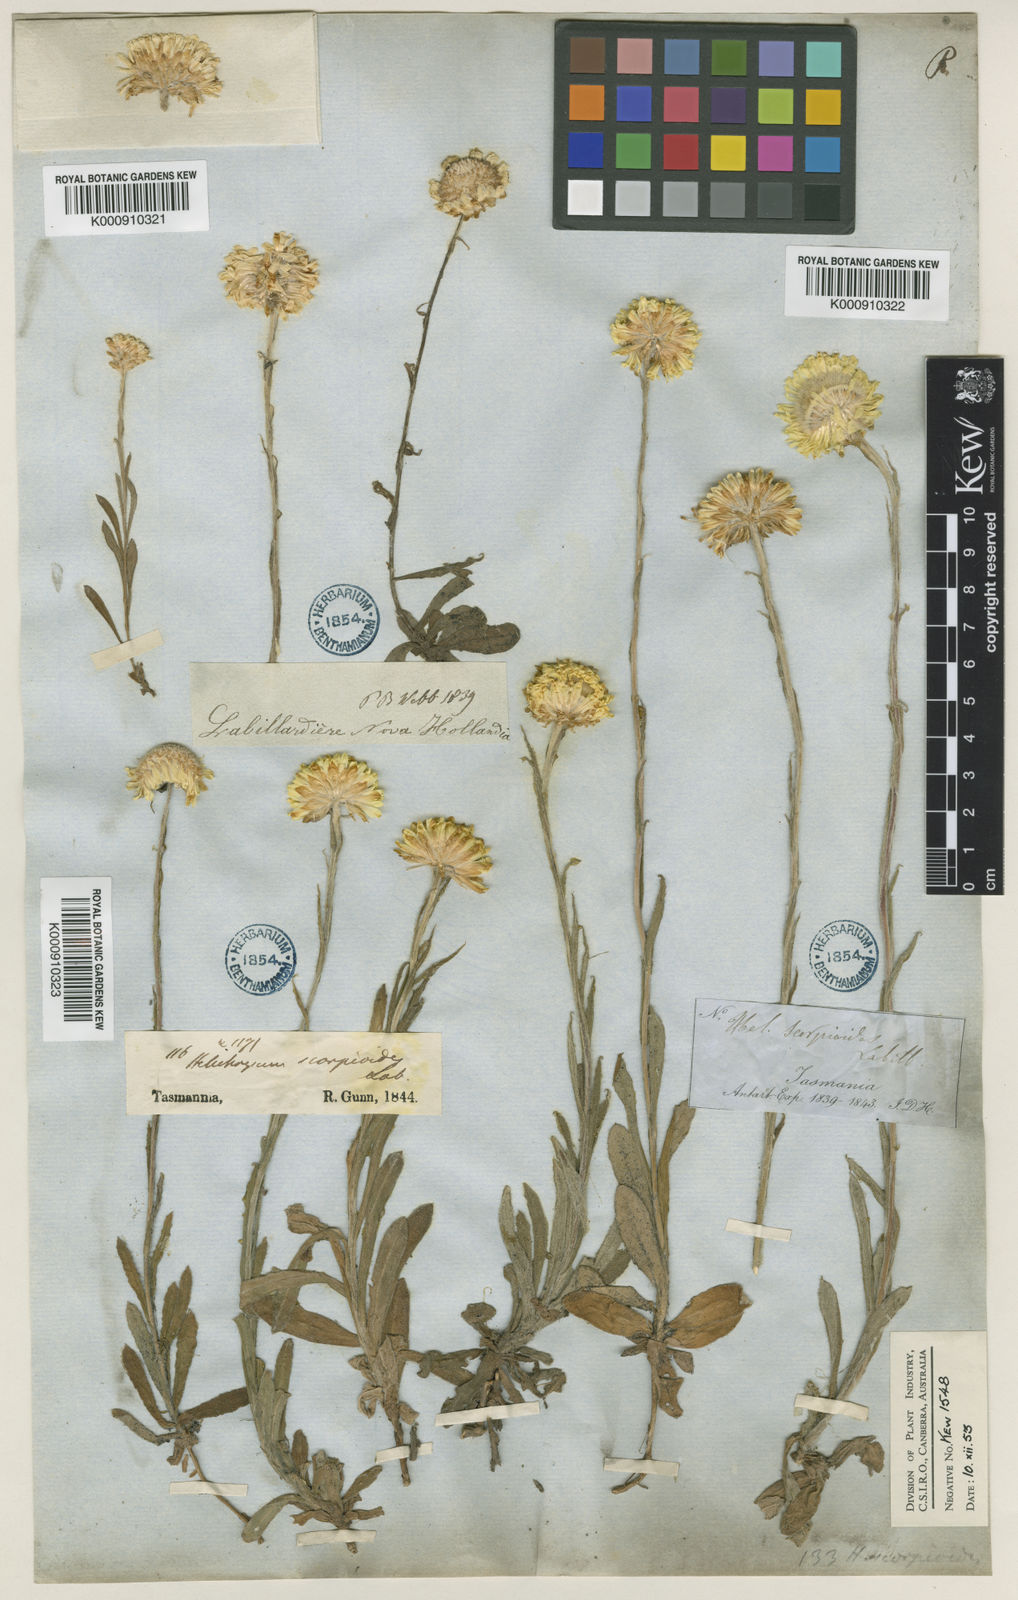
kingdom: Plantae
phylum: Tracheophyta
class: Magnoliopsida
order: Asterales
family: Asteraceae
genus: Coronidium
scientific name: Coronidium scorpioides
